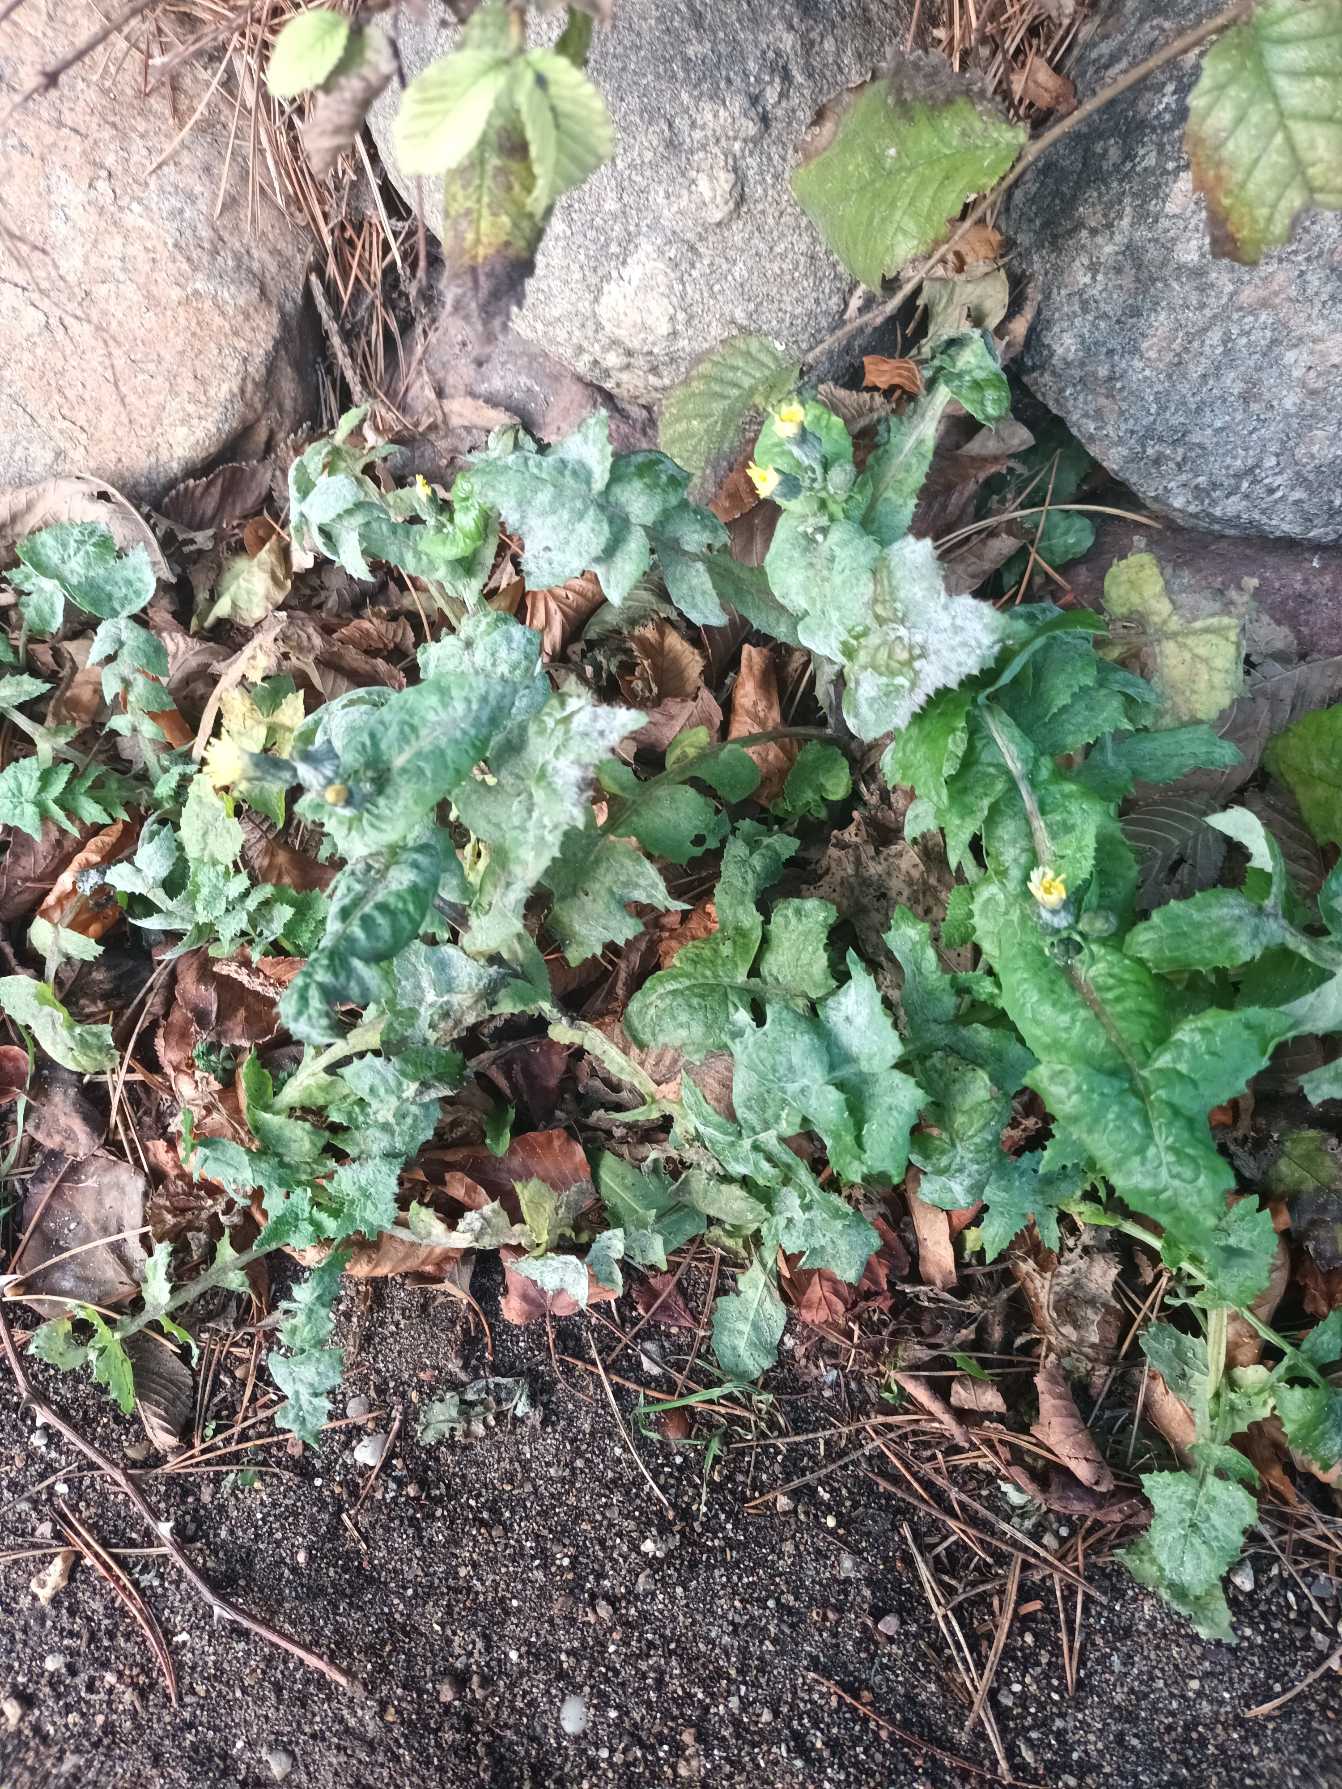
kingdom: Plantae
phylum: Tracheophyta
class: Magnoliopsida
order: Asterales
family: Asteraceae
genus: Sonchus
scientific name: Sonchus oleraceus
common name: Almindelig svinemælk
